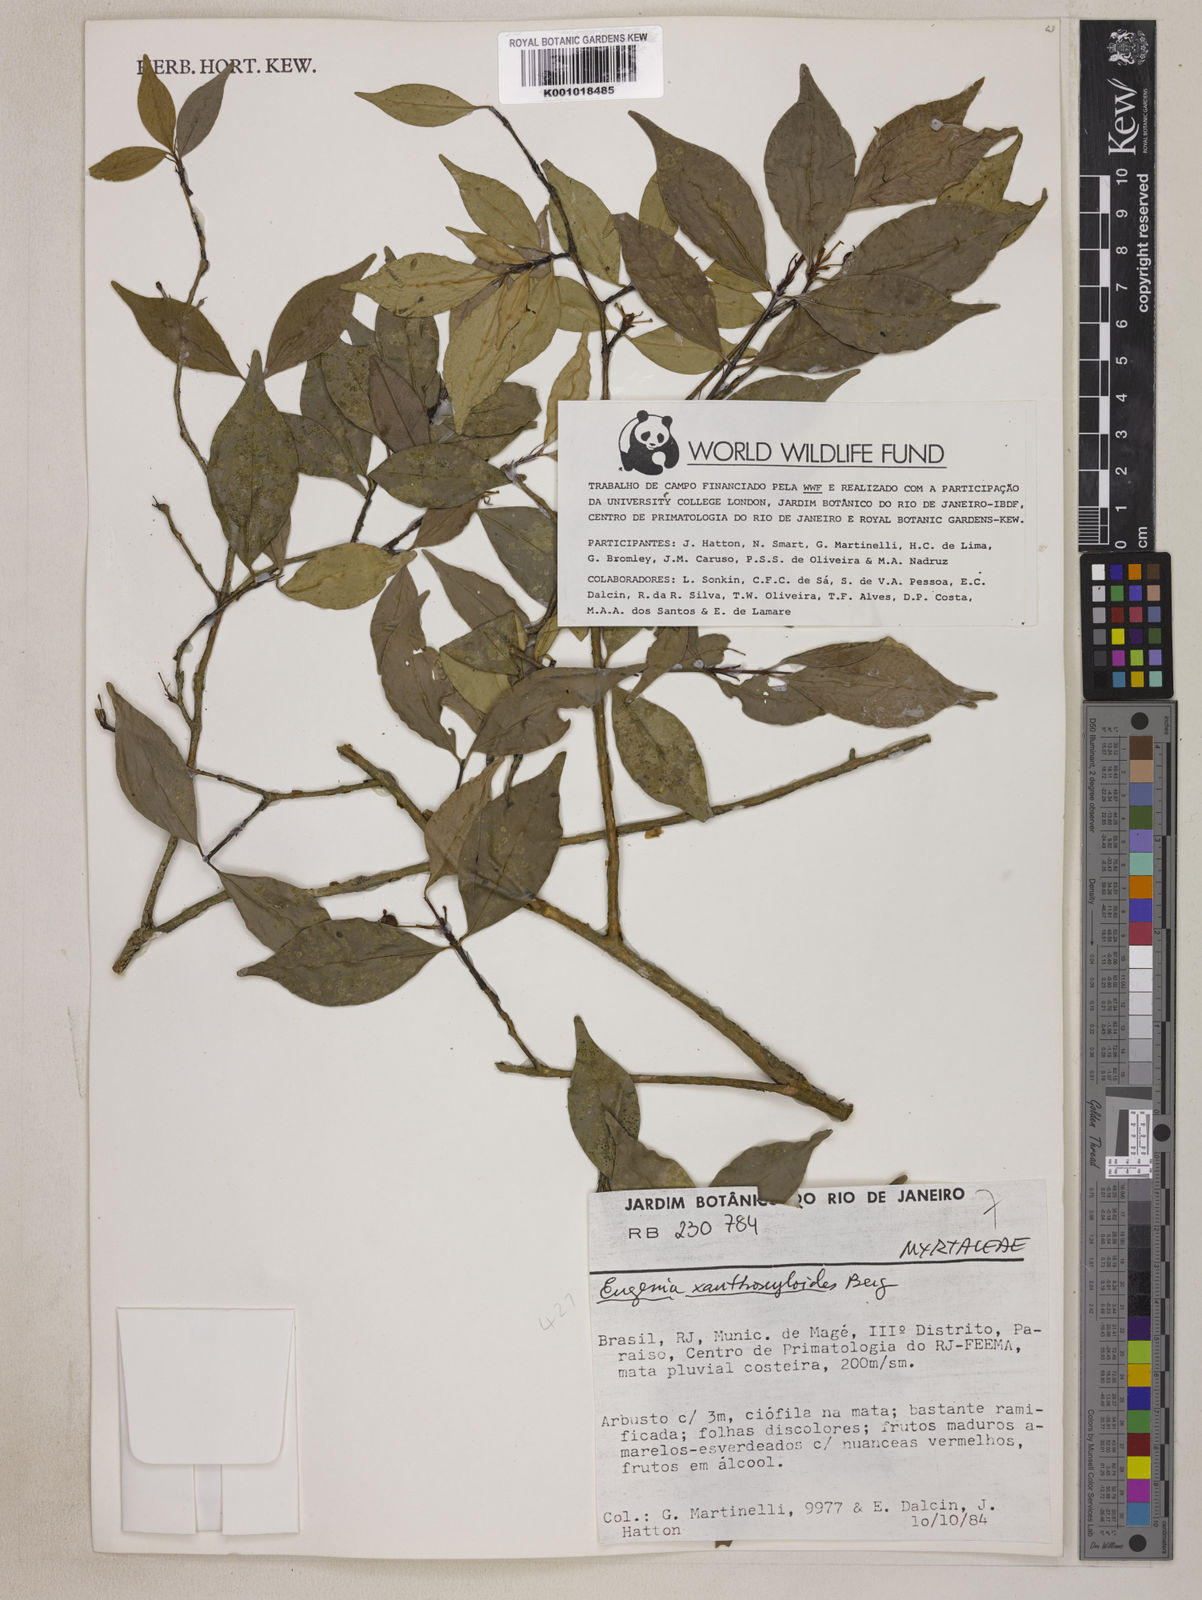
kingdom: Plantae
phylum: Tracheophyta
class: Magnoliopsida
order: Myrtales
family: Myrtaceae
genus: Eugenia
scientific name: Eugenia xanthoxyloides
